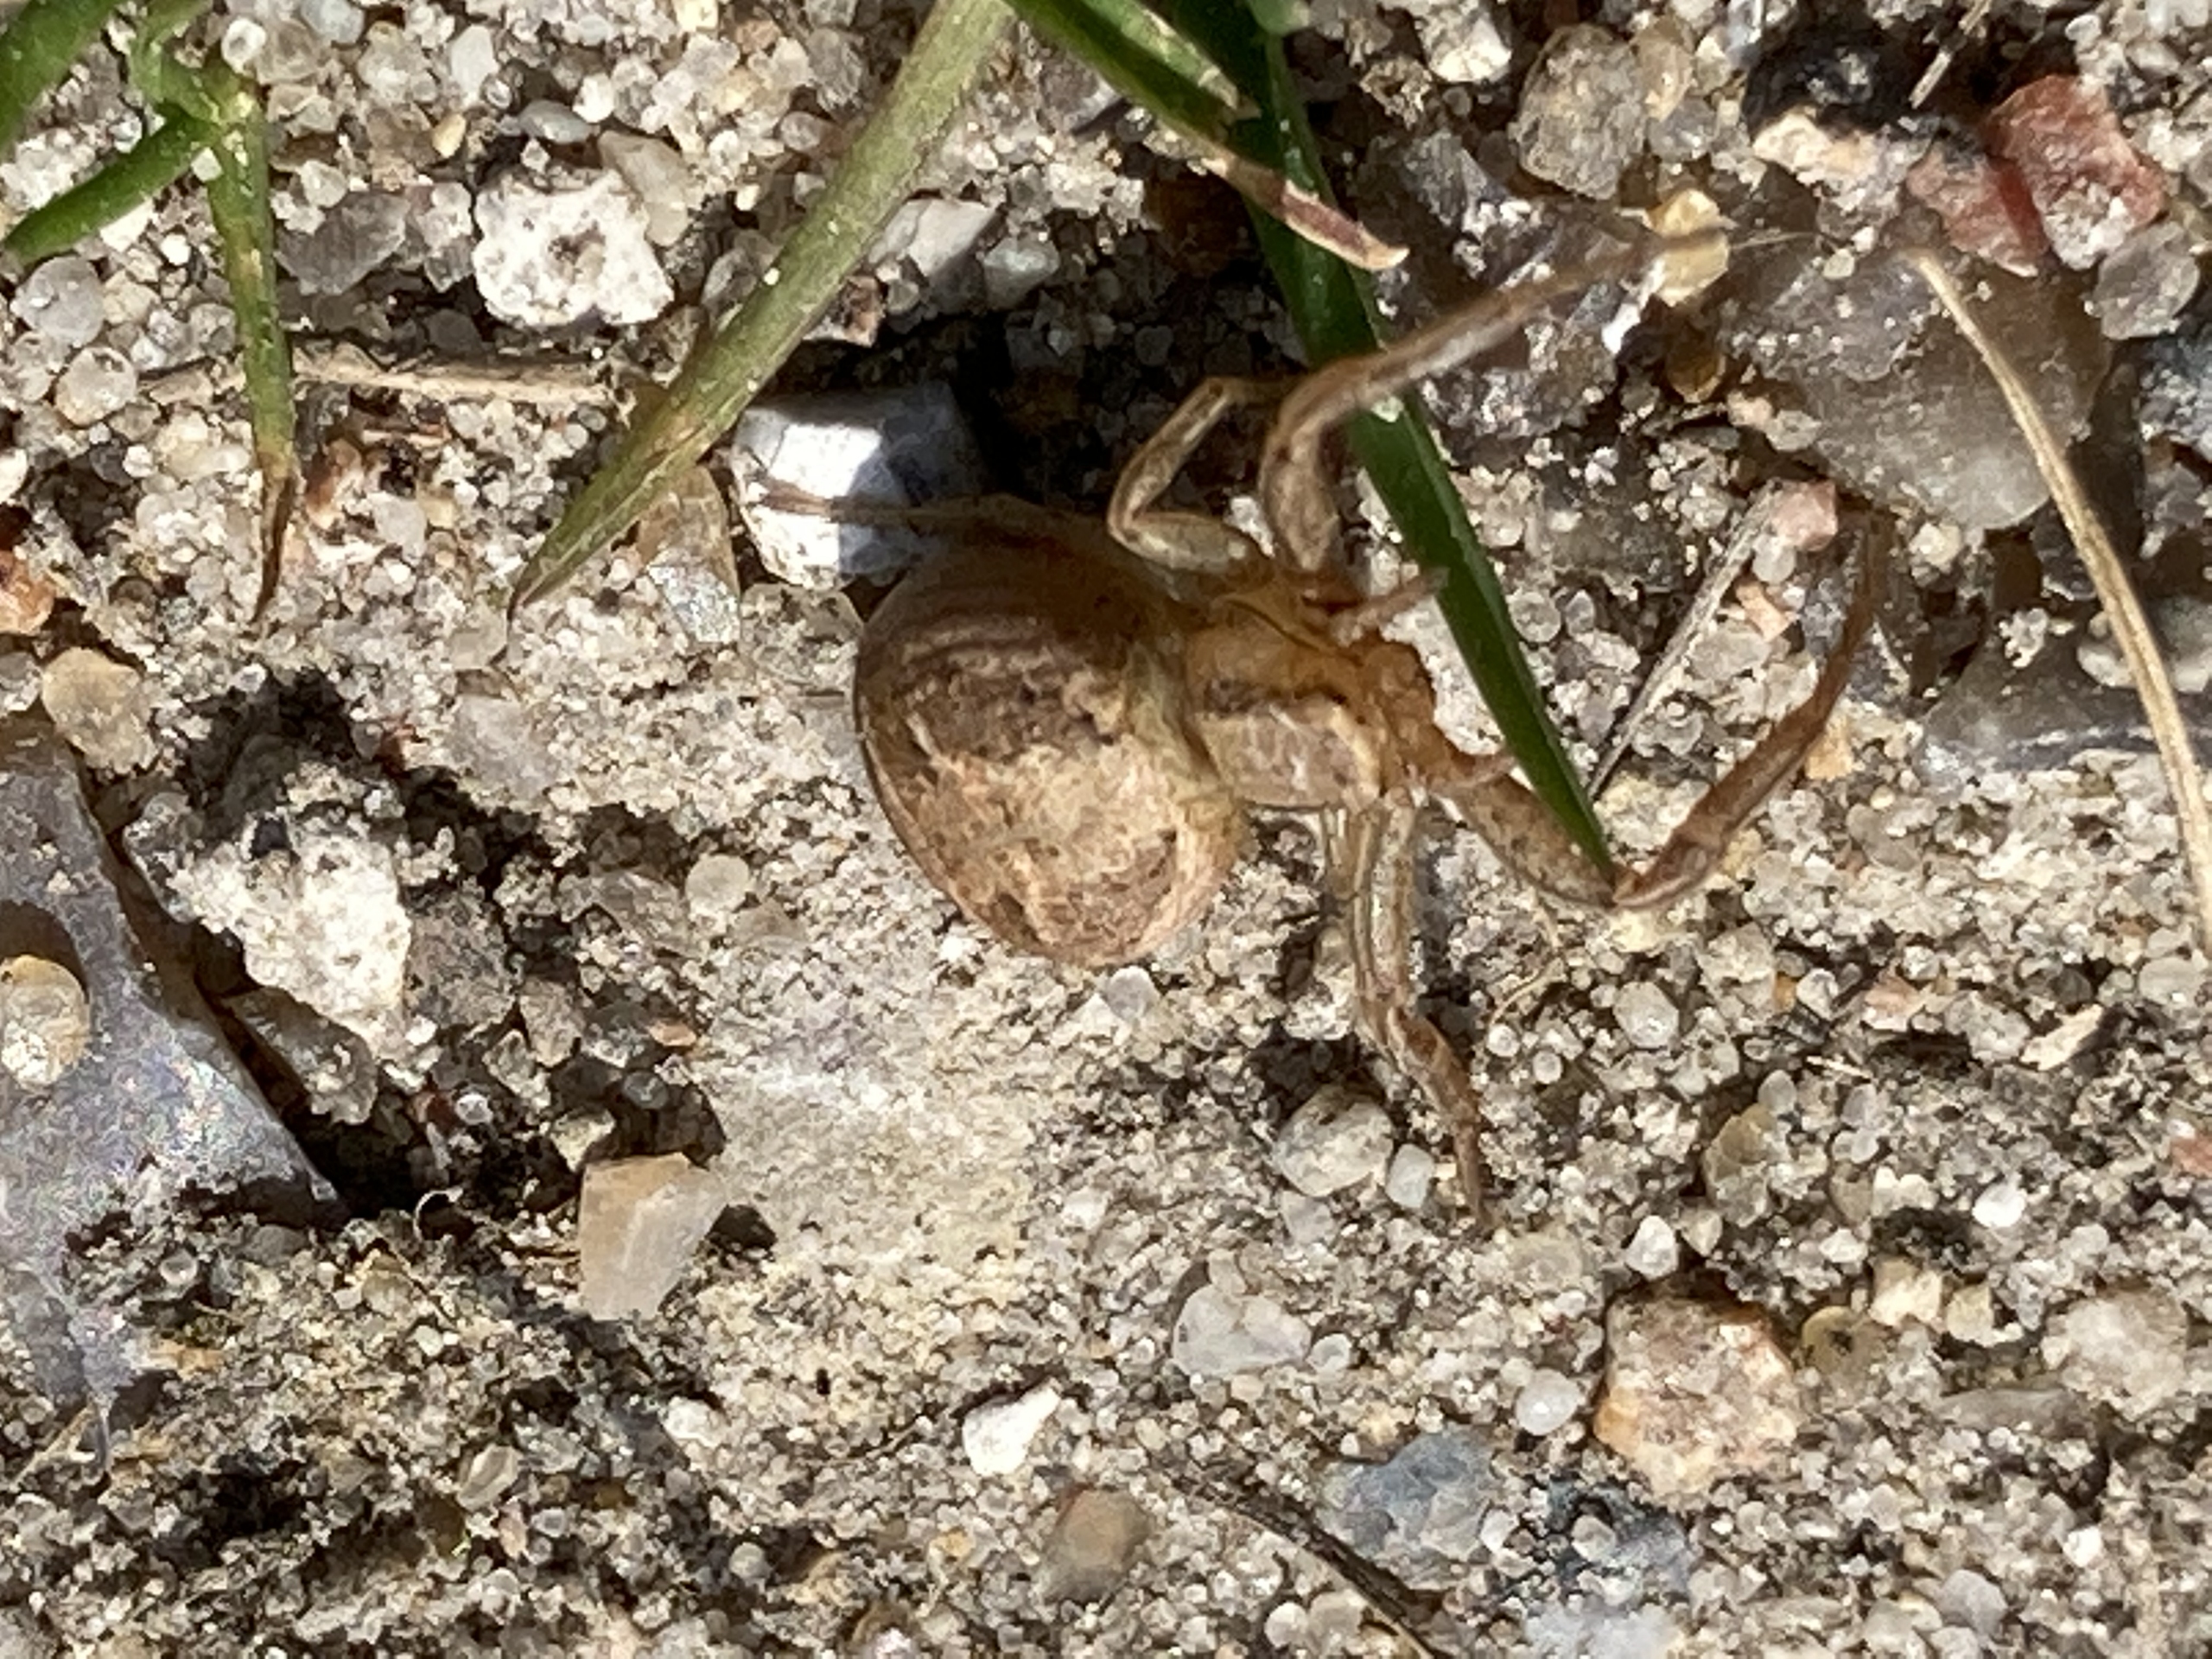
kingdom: Animalia
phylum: Arthropoda
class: Arachnida
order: Araneae
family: Thomisidae
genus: Xysticus
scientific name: Xysticus
